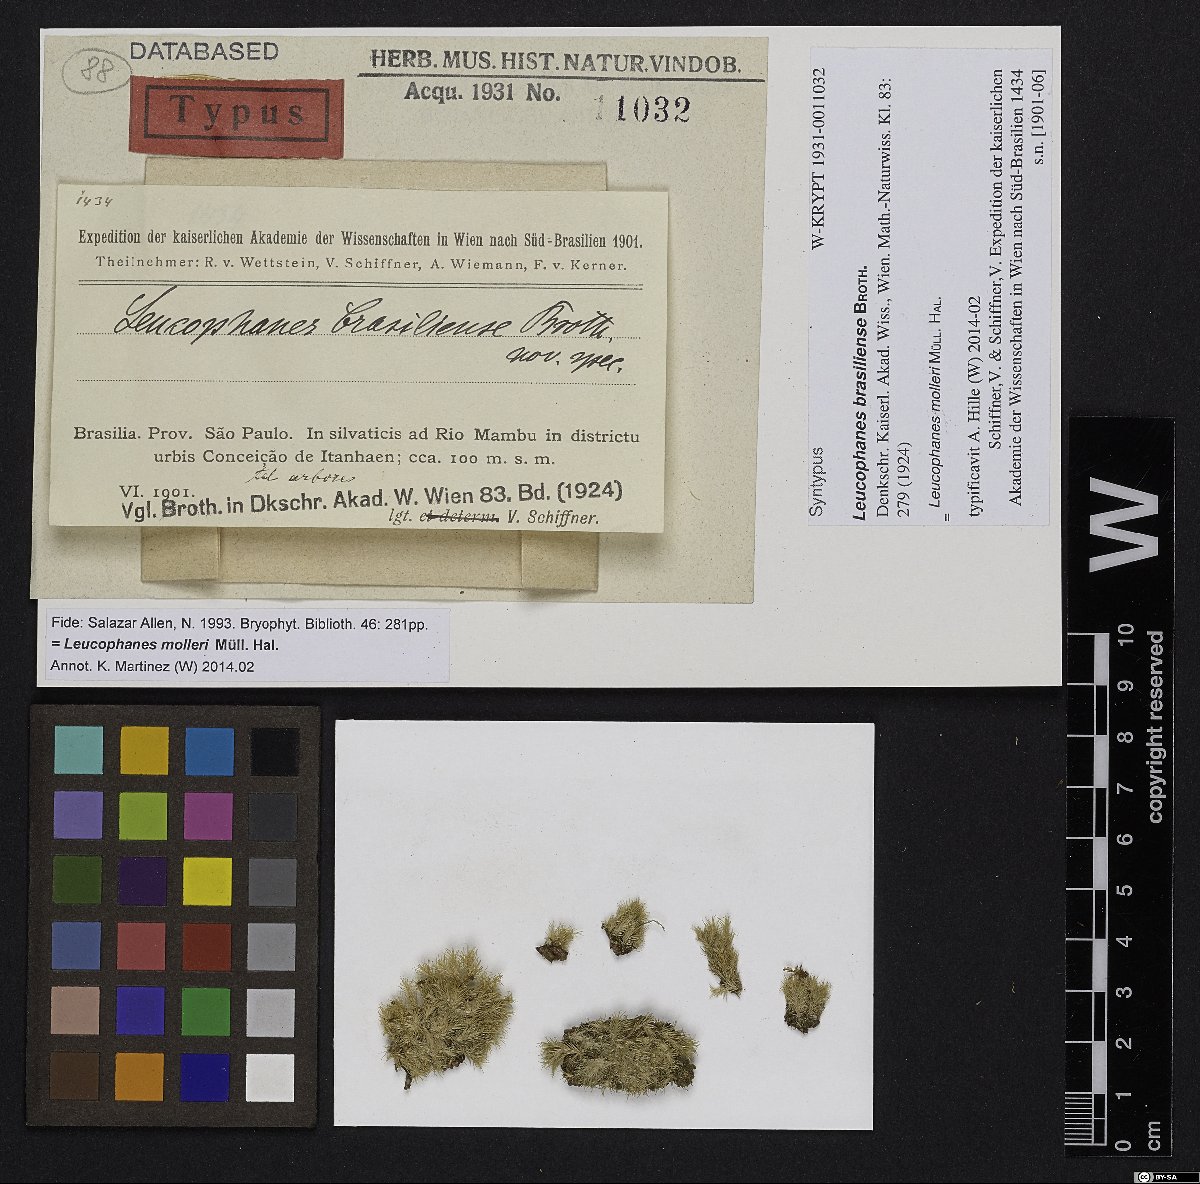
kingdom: Plantae
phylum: Bryophyta
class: Bryopsida
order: Dicranales
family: Calymperaceae
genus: Leucophanes
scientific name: Leucophanes molleri
